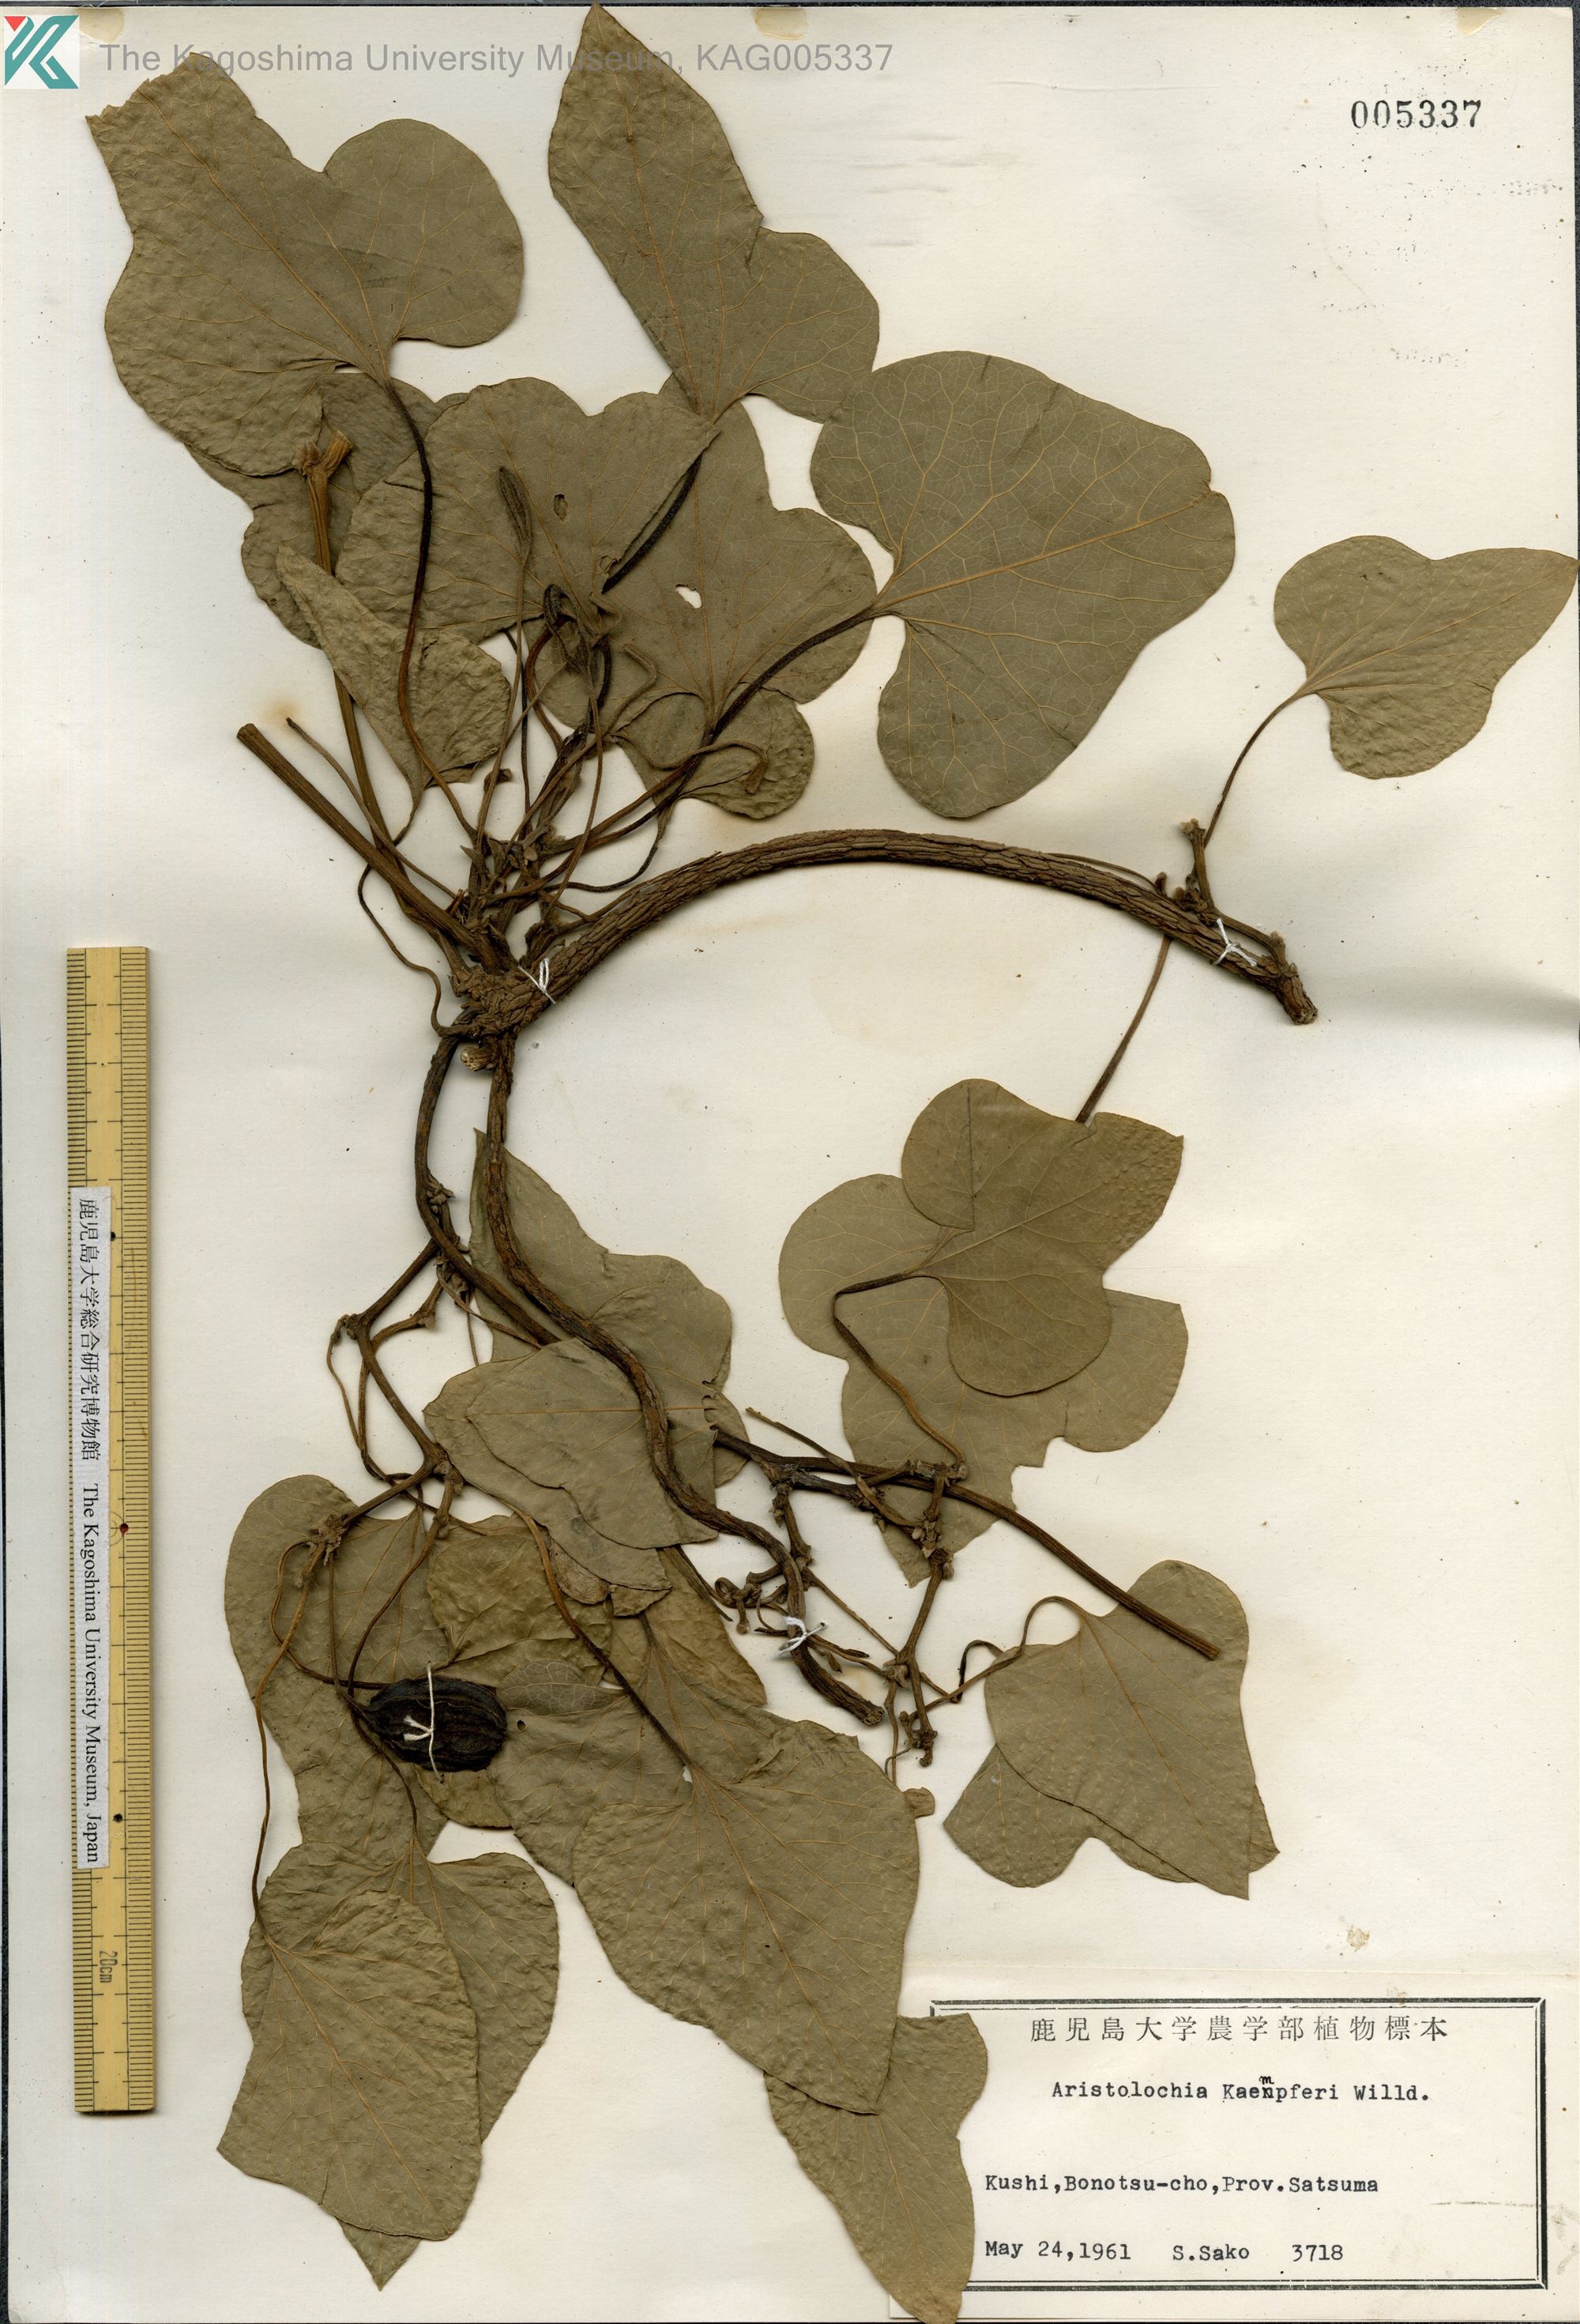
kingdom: Plantae
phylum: Tracheophyta
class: Magnoliopsida
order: Piperales
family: Aristolochiaceae
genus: Isotrema
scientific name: Isotrema kaempferi
